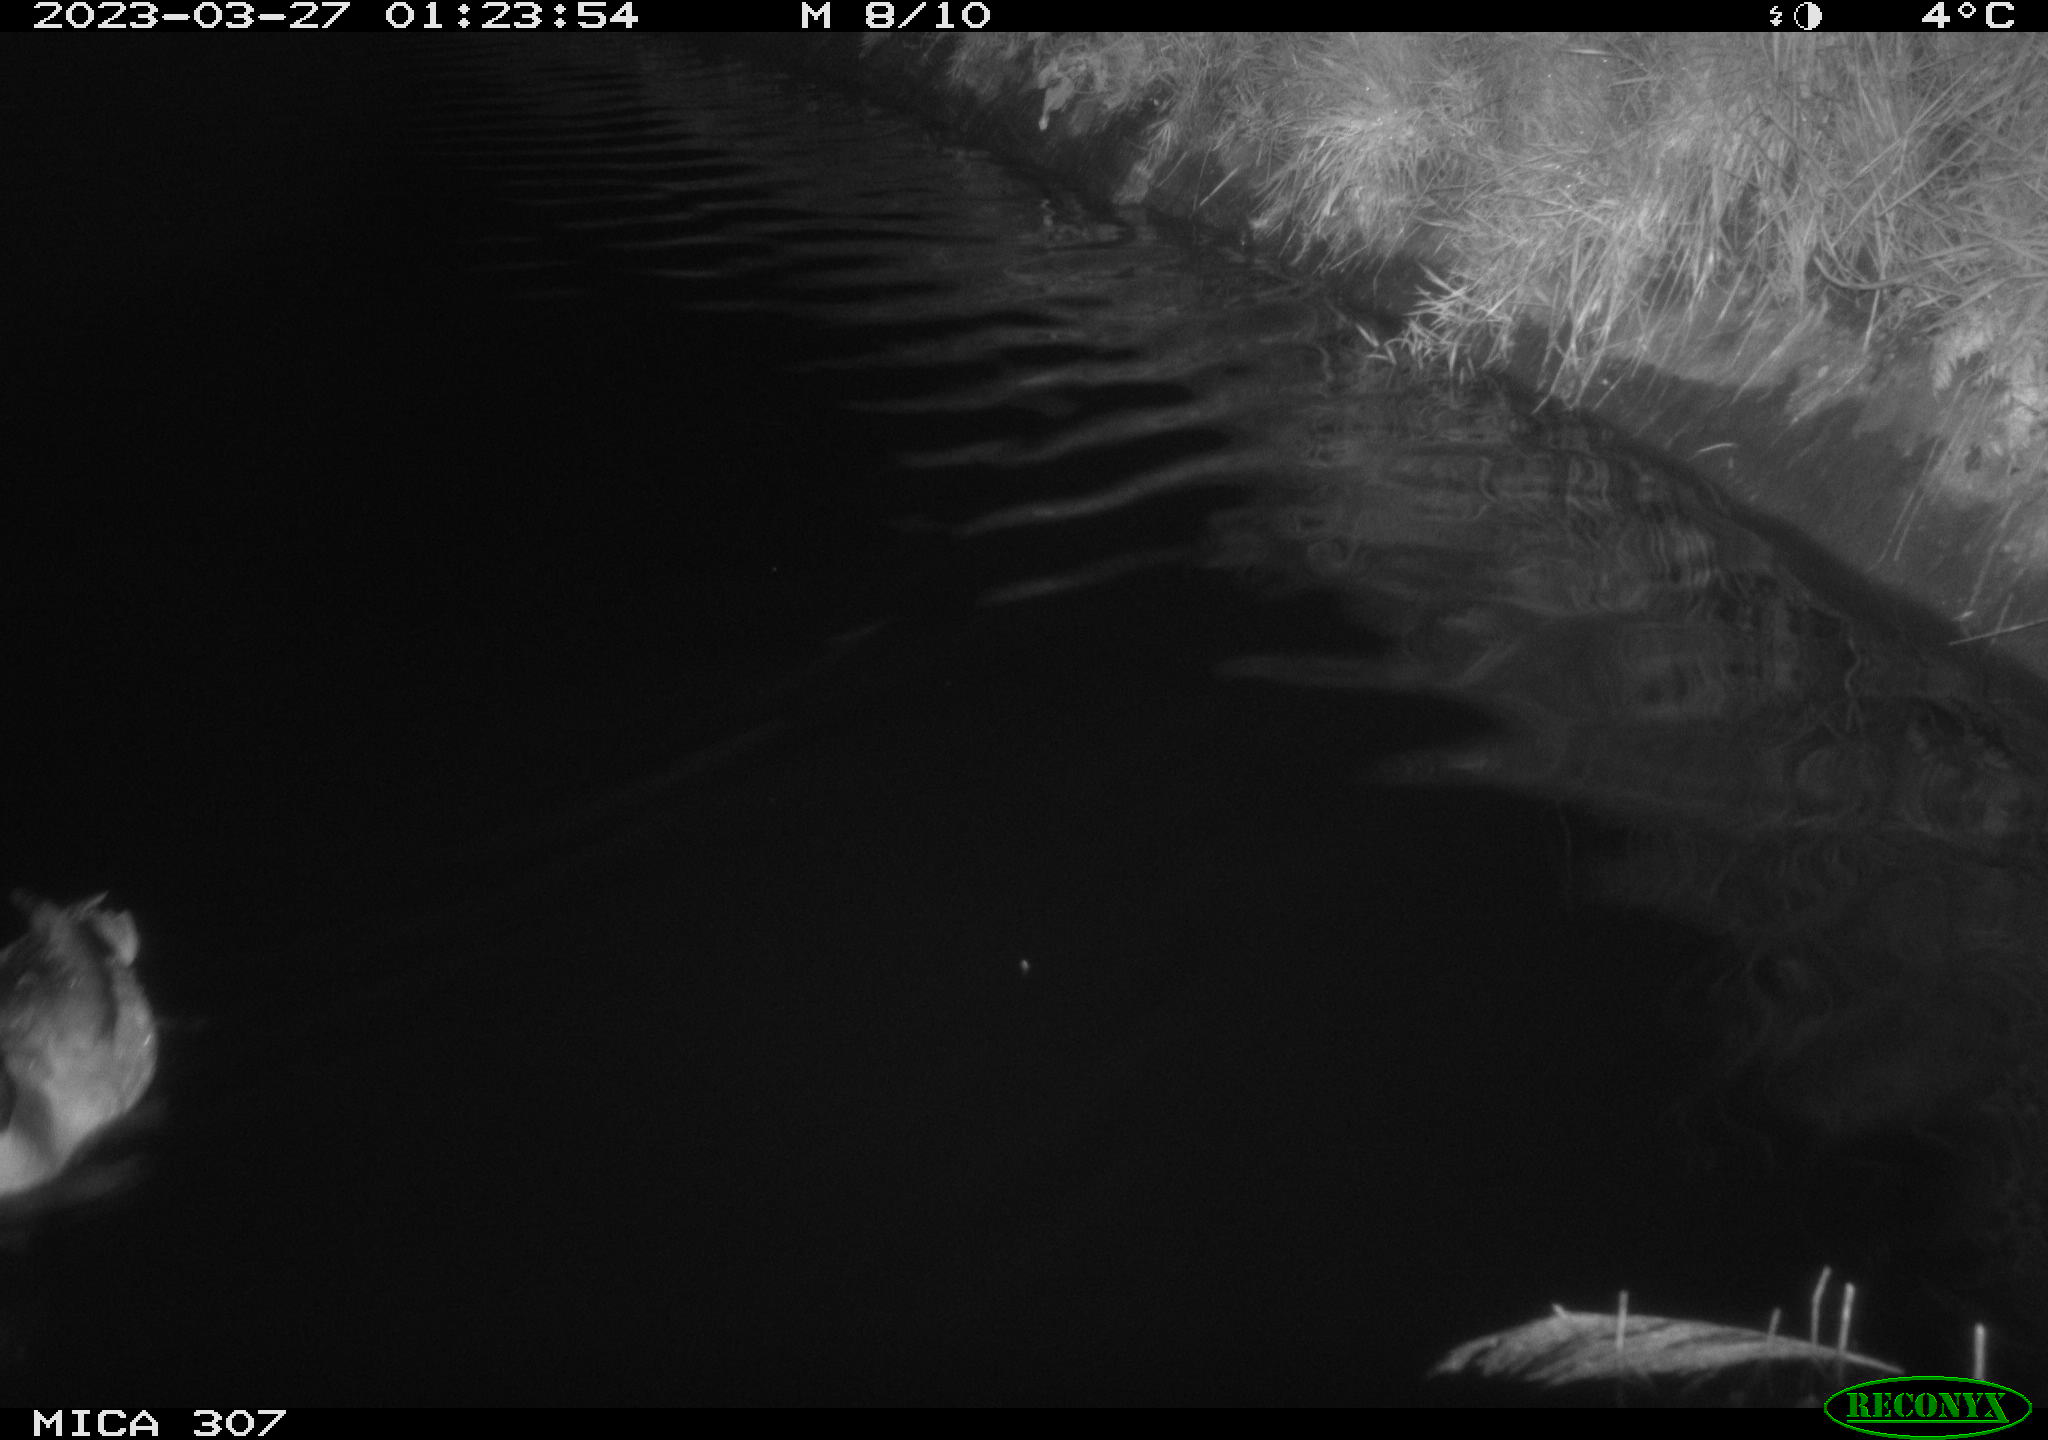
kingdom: Animalia
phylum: Chordata
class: Aves
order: Anseriformes
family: Anatidae
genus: Anas
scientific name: Anas
